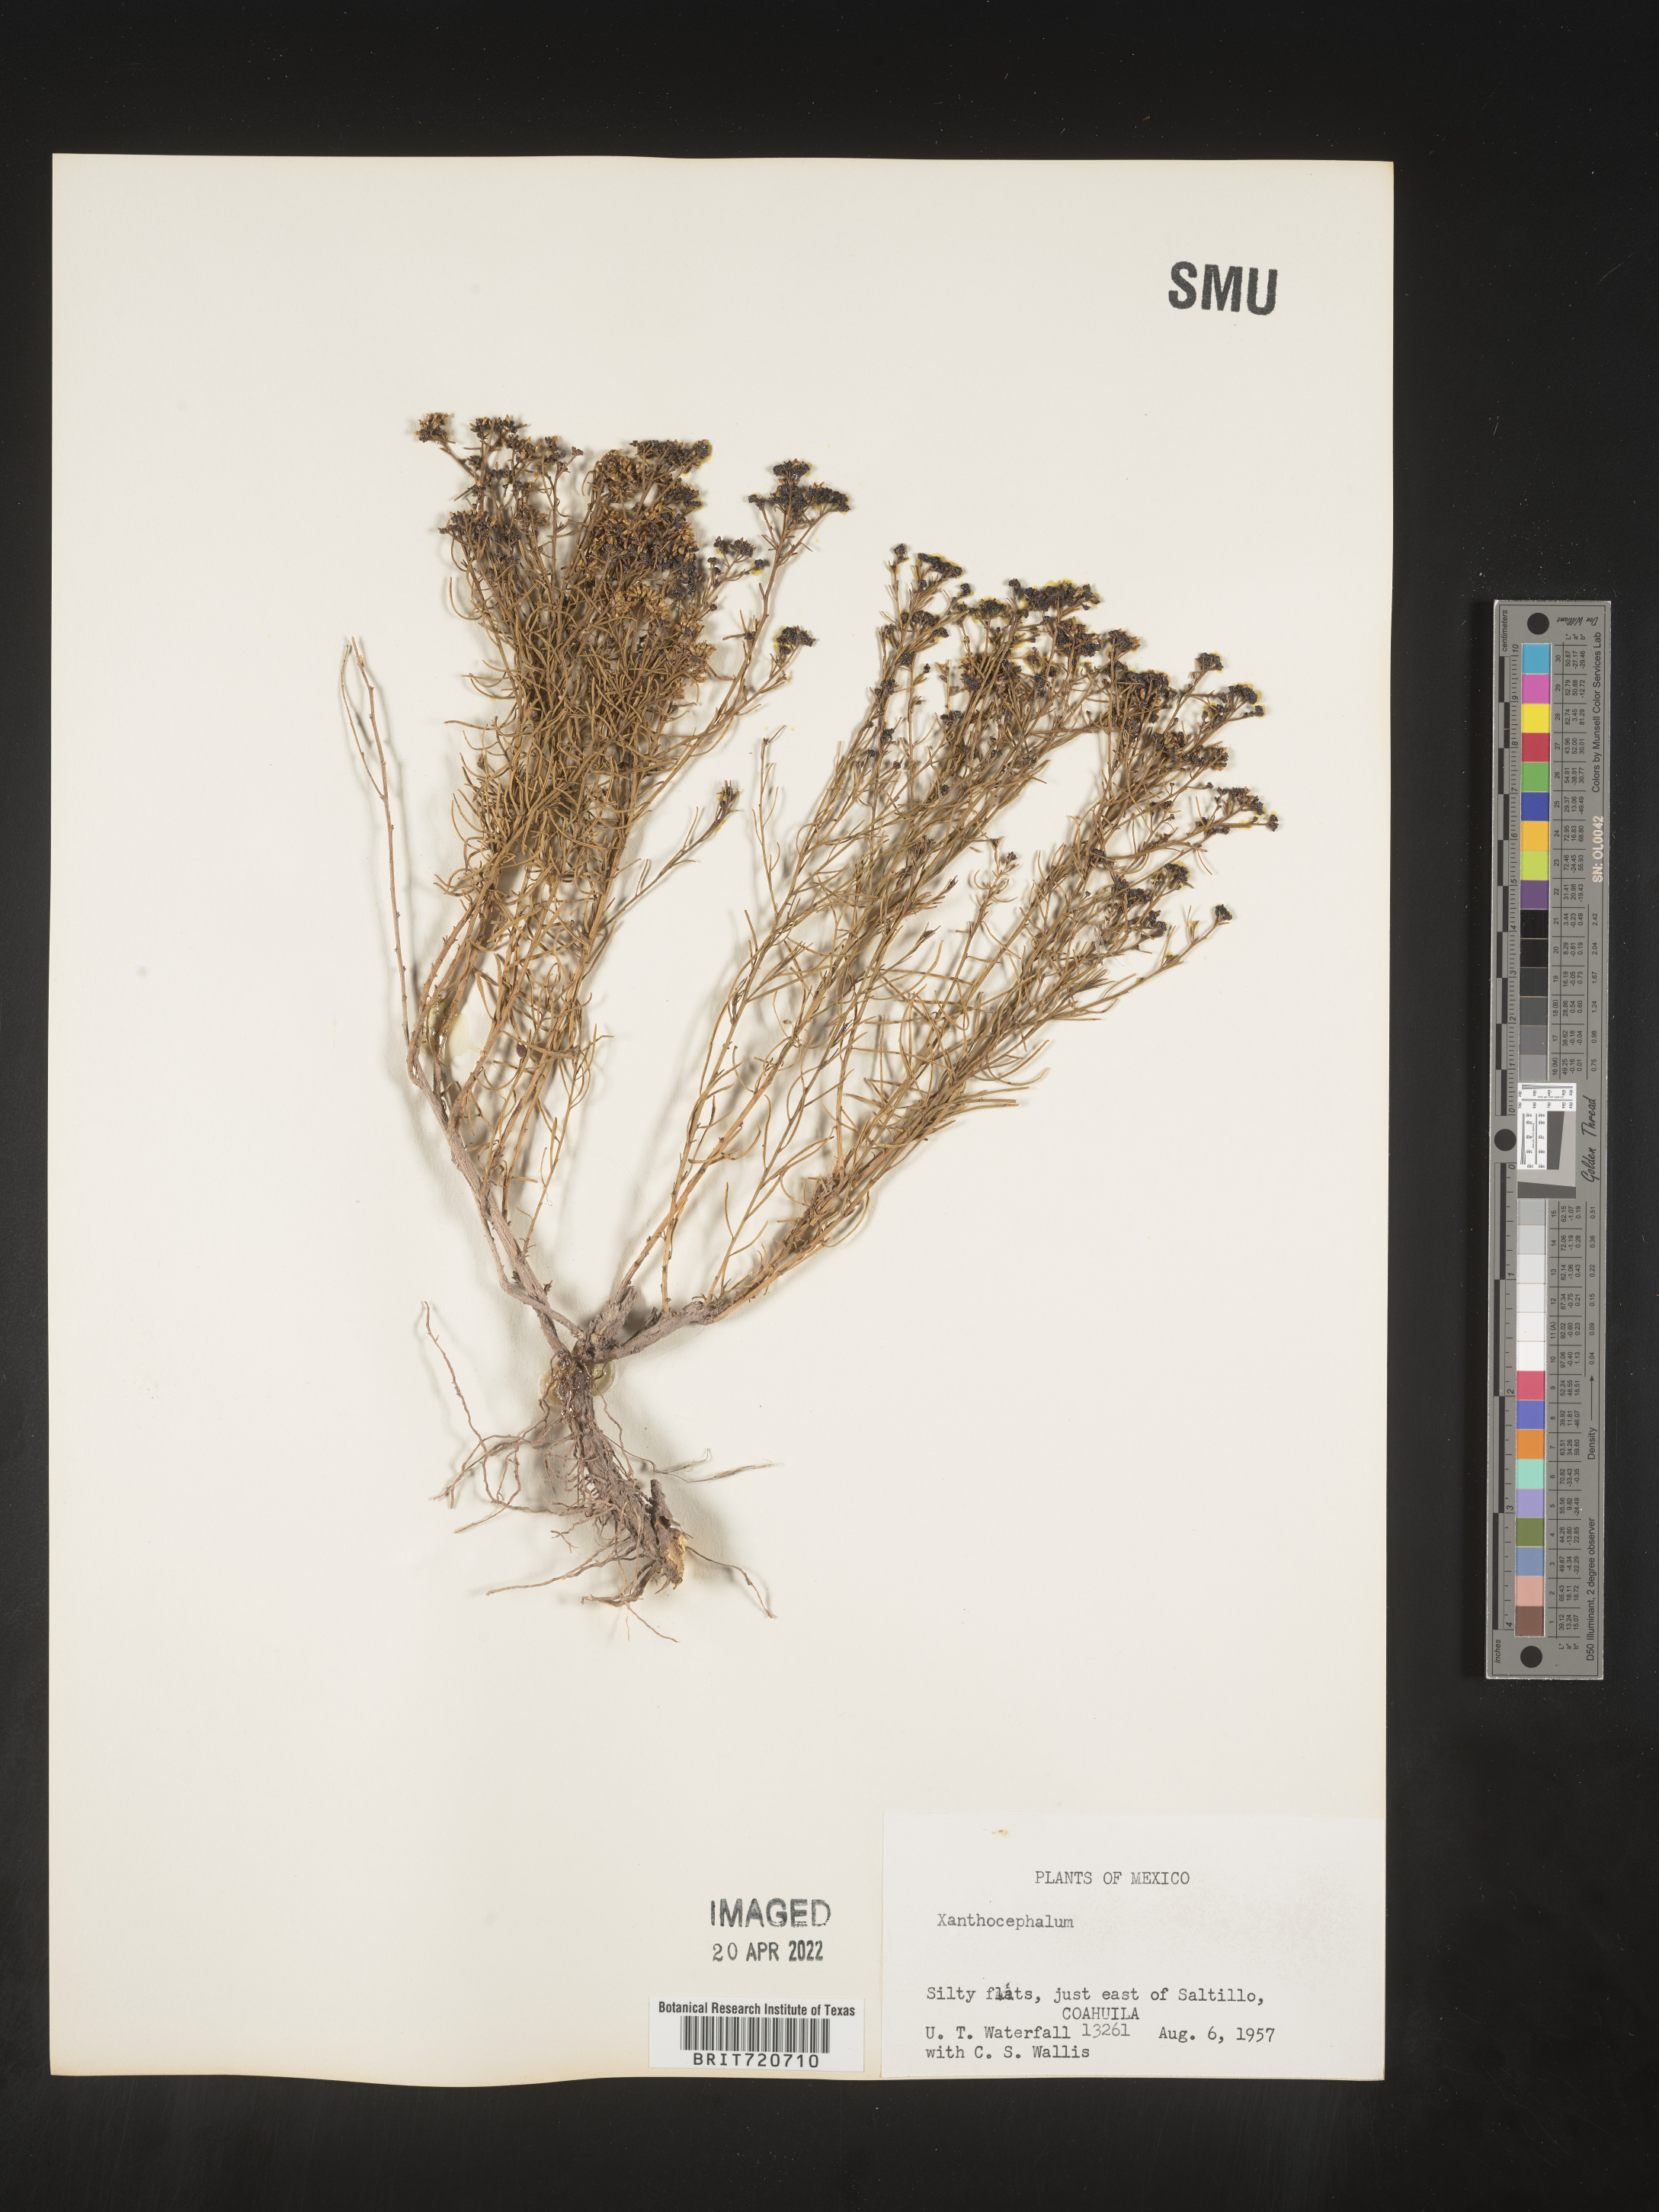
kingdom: Plantae
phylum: Tracheophyta
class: Magnoliopsida
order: Asterales
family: Asteraceae
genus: Gutierrezia
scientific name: Gutierrezia sarothrae
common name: Broom snakeweed
